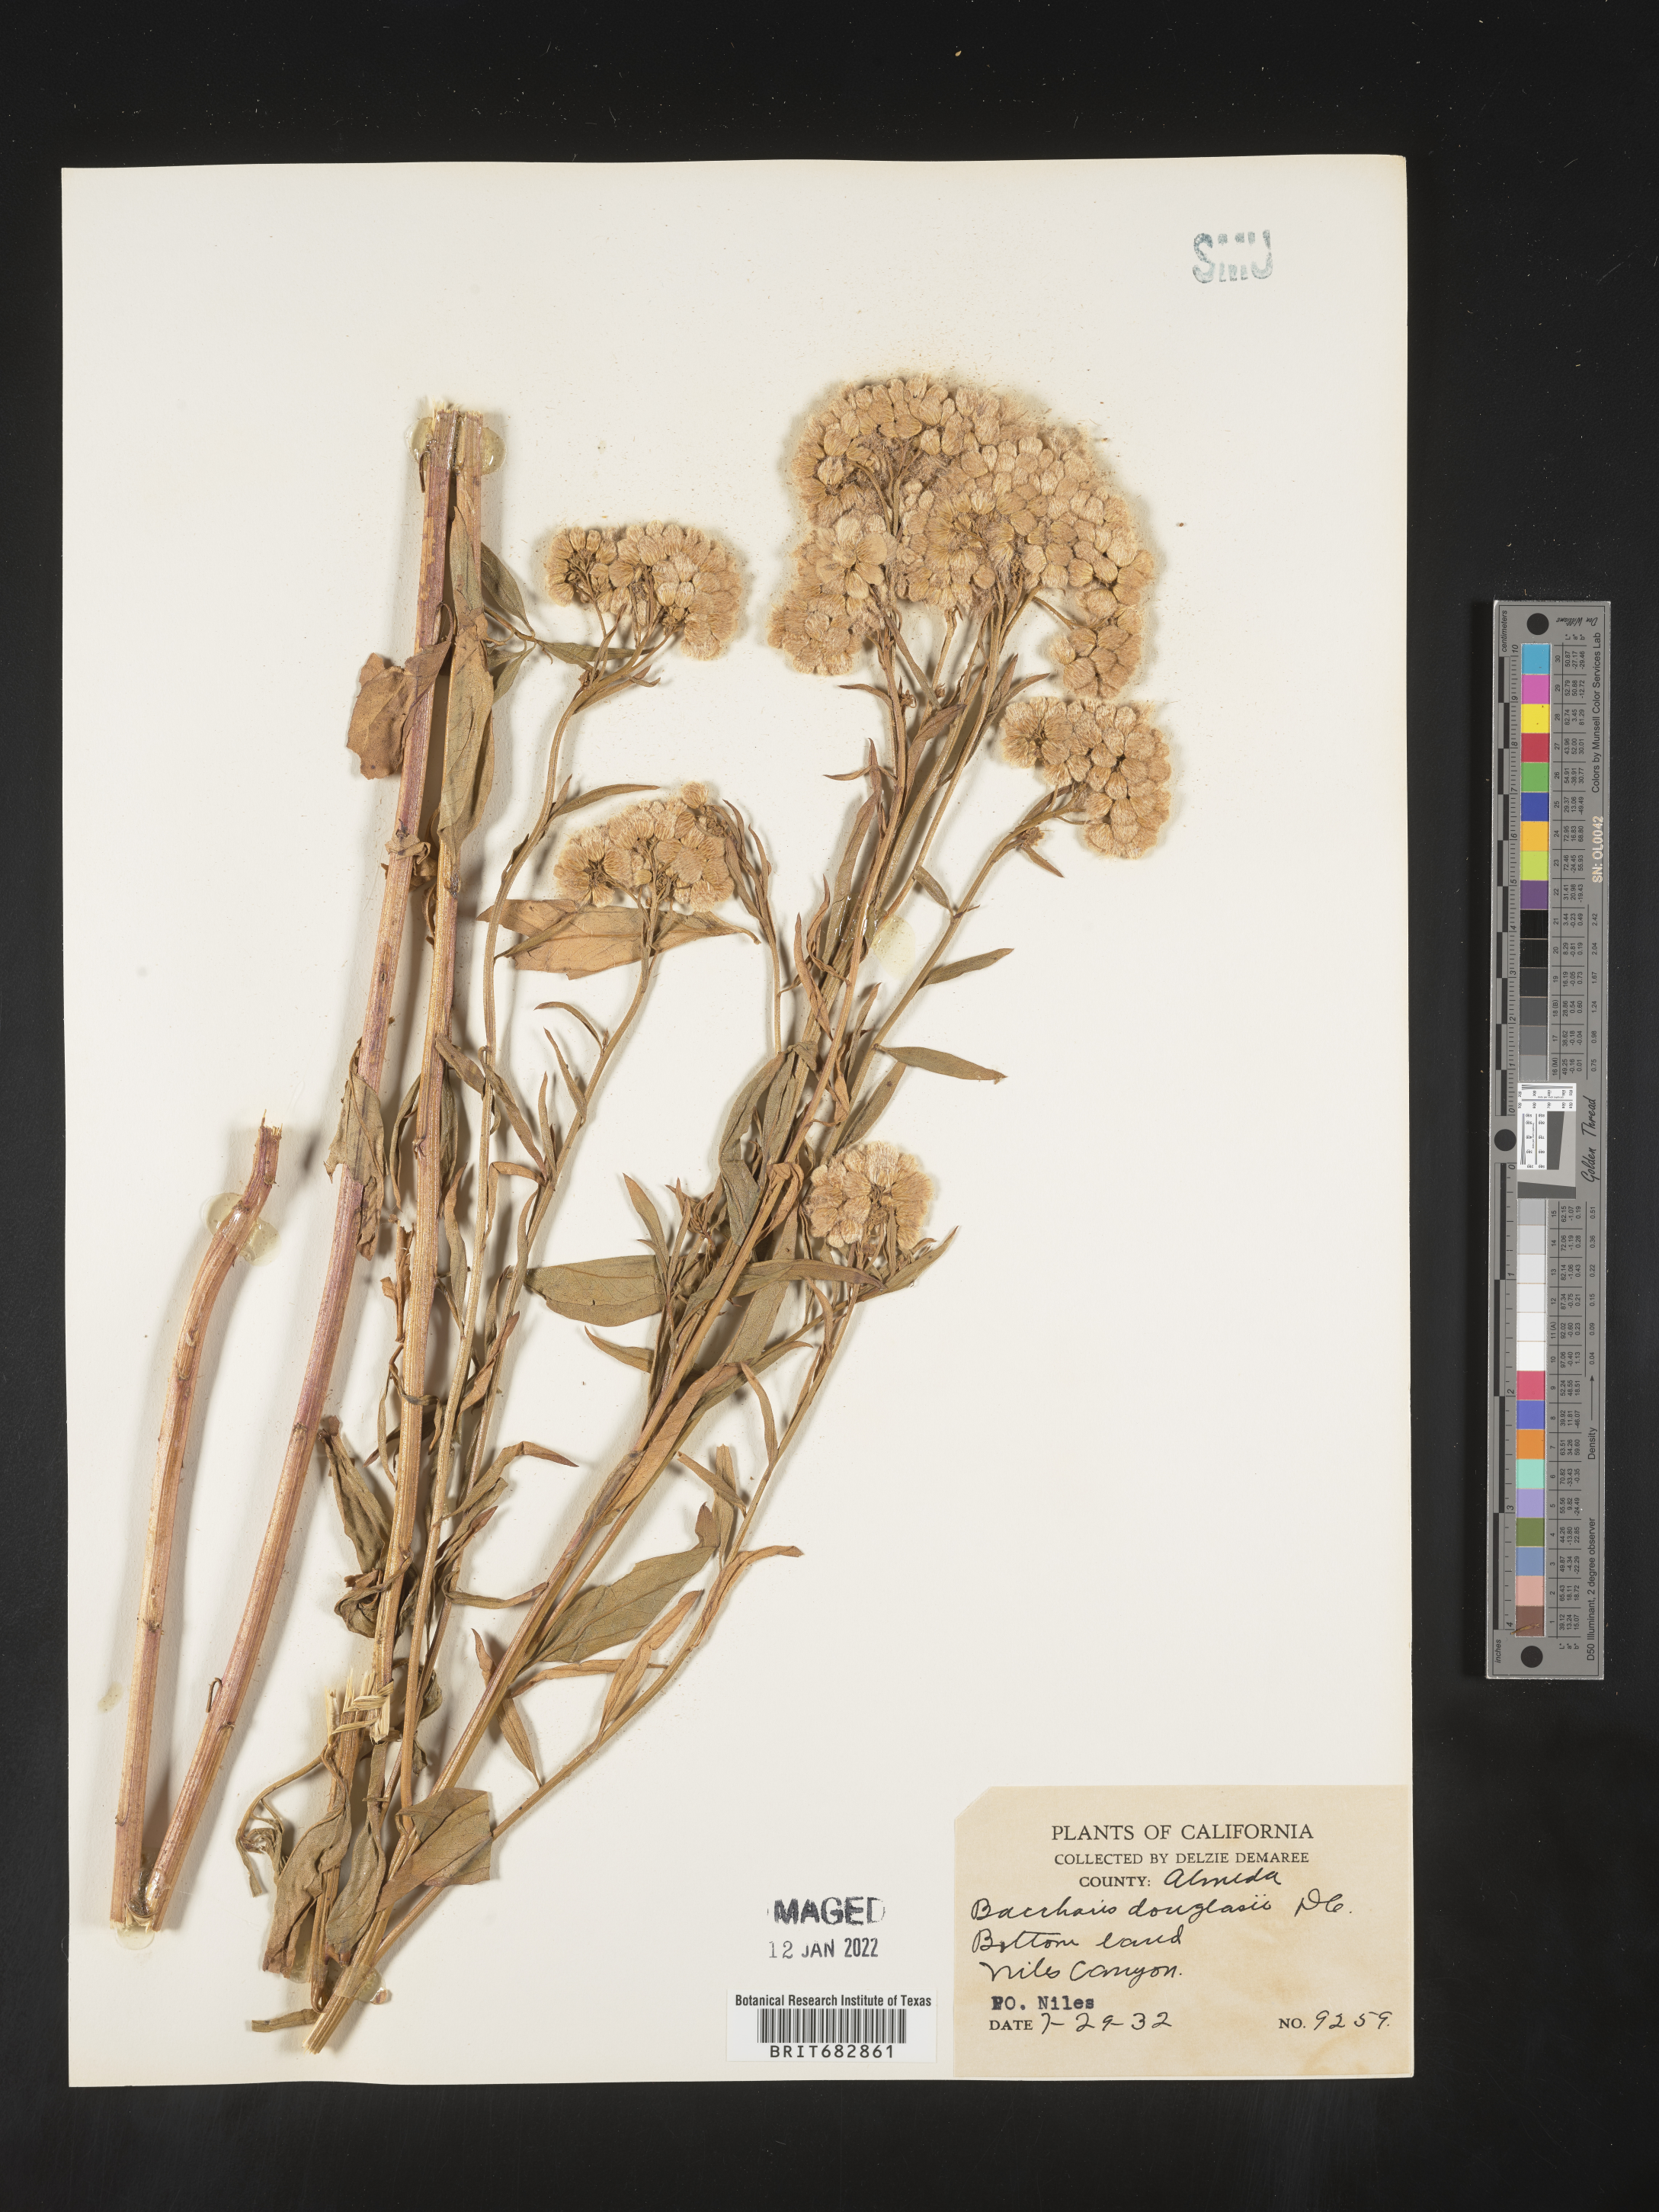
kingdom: Plantae
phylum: Tracheophyta
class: Magnoliopsida
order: Asterales
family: Asteraceae
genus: Baccharis
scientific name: Baccharis douglasii
